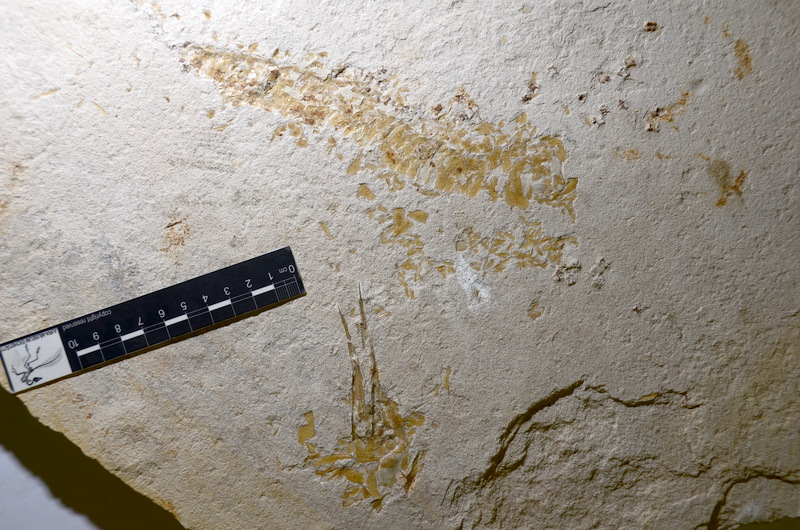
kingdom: Animalia
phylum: Chordata
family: Aspidorhynchidae
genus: Belonostomus
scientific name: Belonostomus
